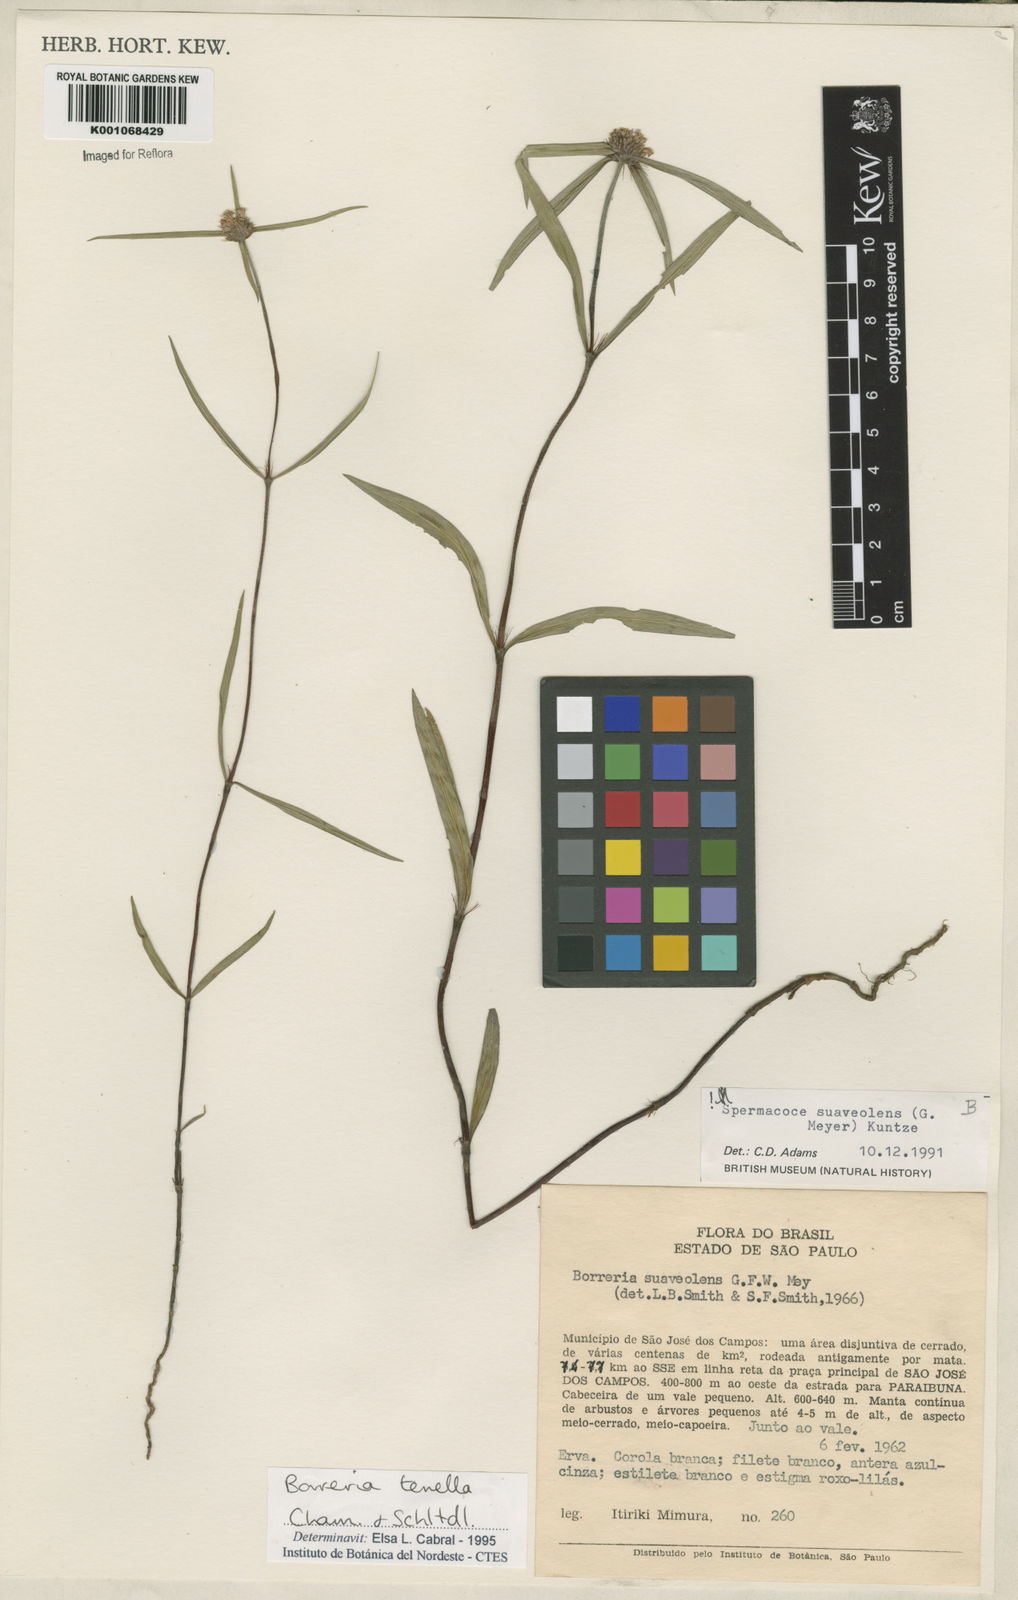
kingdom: Plantae
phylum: Tracheophyta
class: Magnoliopsida
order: Gentianales
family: Rubiaceae
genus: Spermacoce
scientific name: Spermacoce suaveolens
